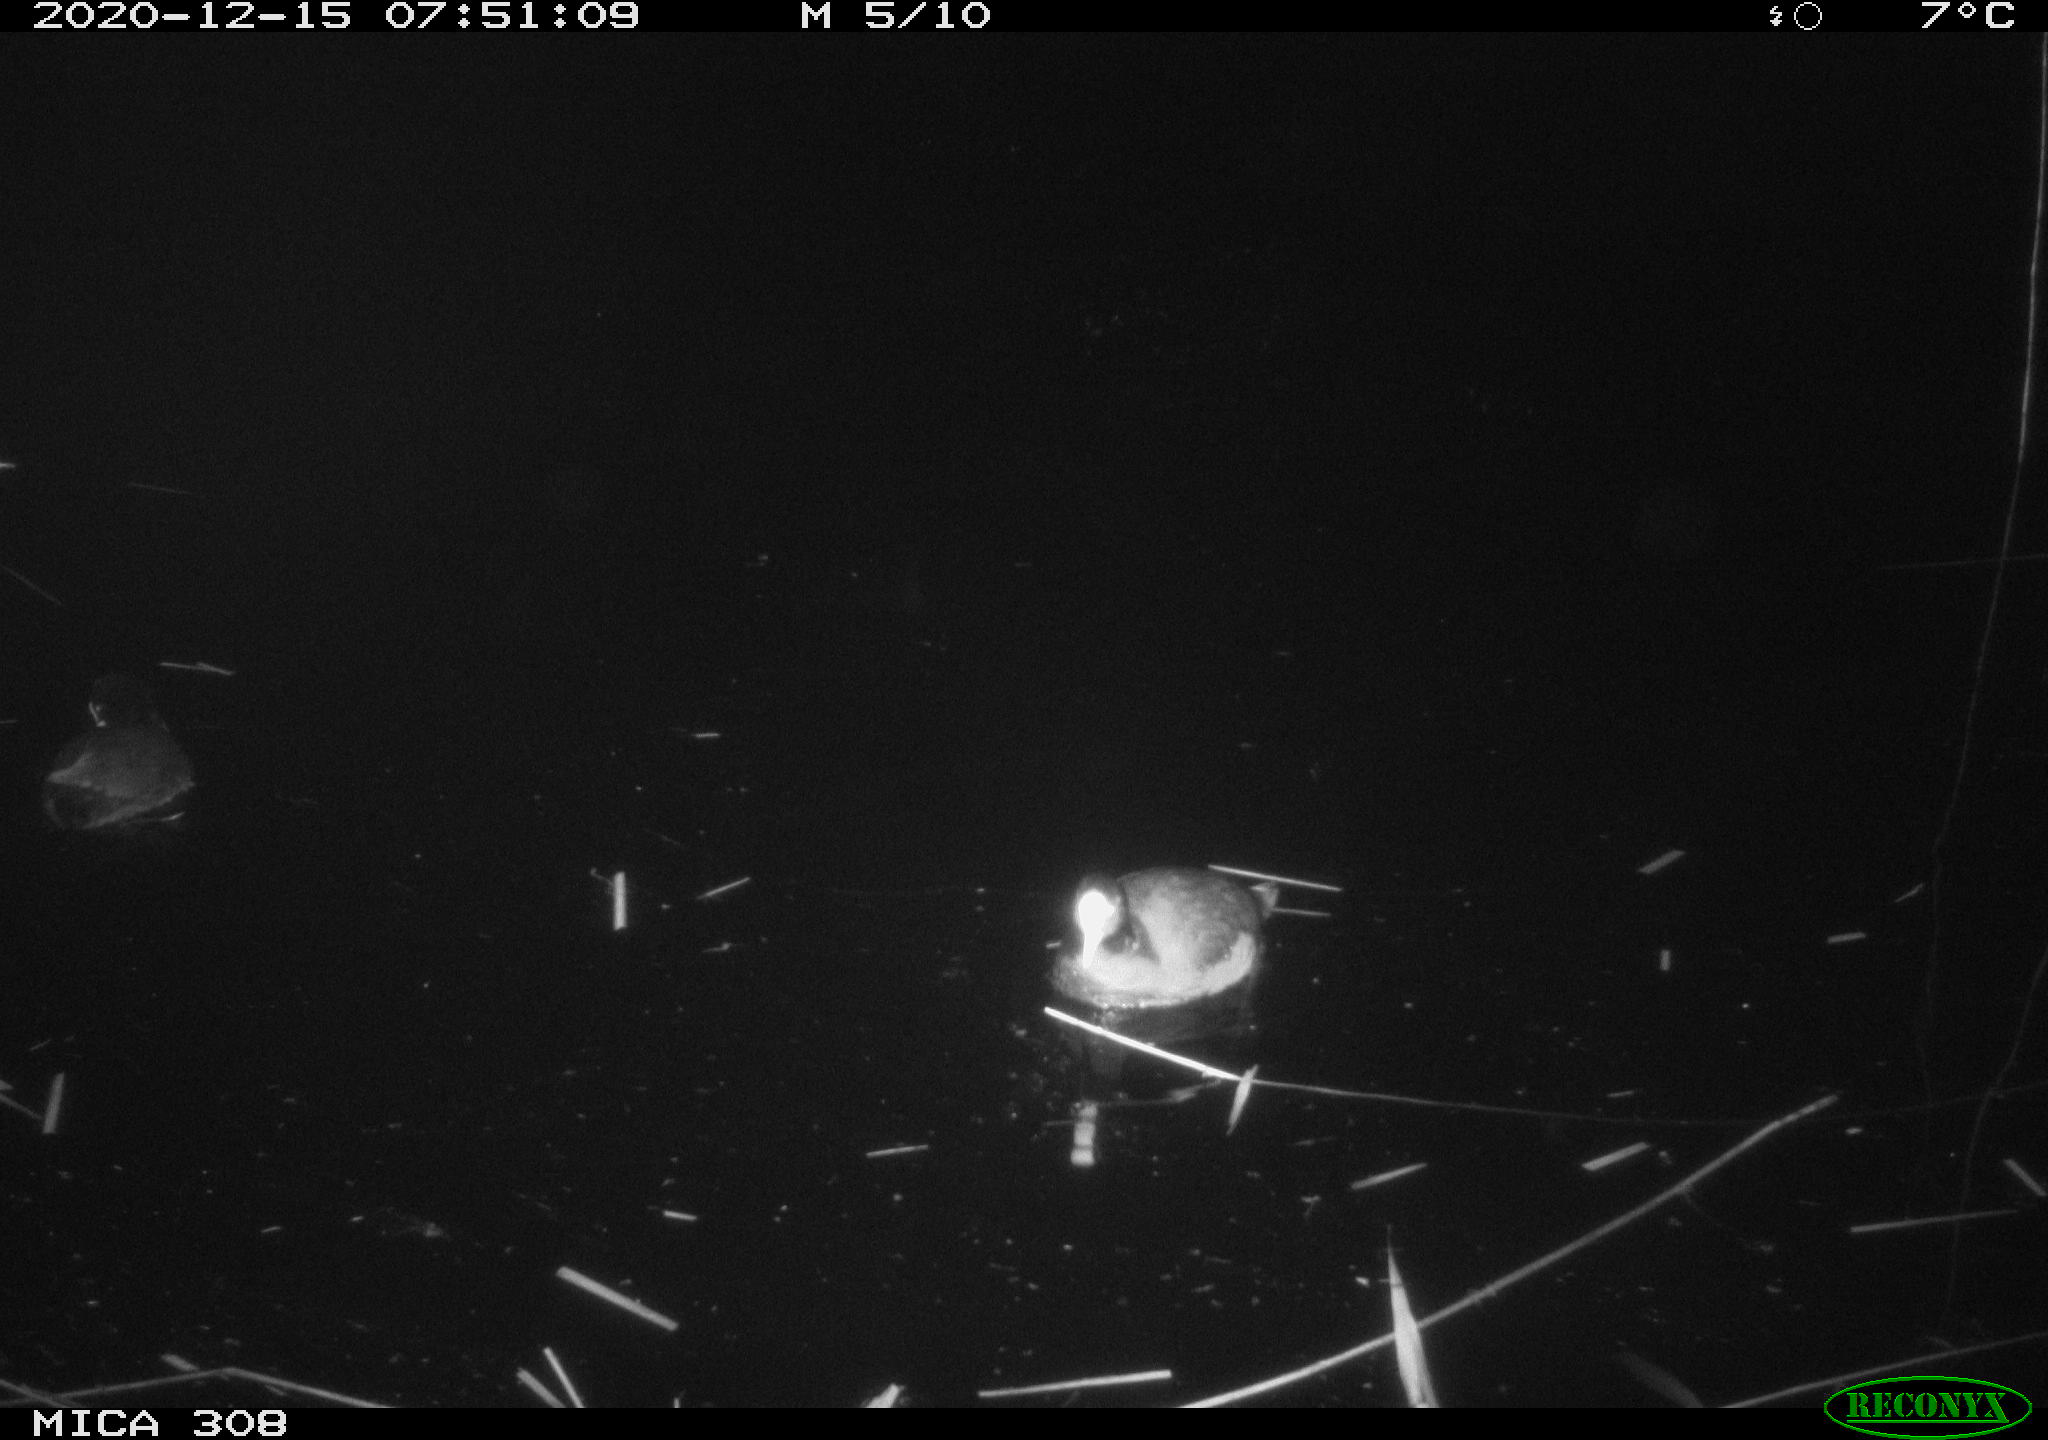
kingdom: Animalia
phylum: Chordata
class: Aves
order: Gruiformes
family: Rallidae
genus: Fulica
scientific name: Fulica atra
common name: Eurasian coot
